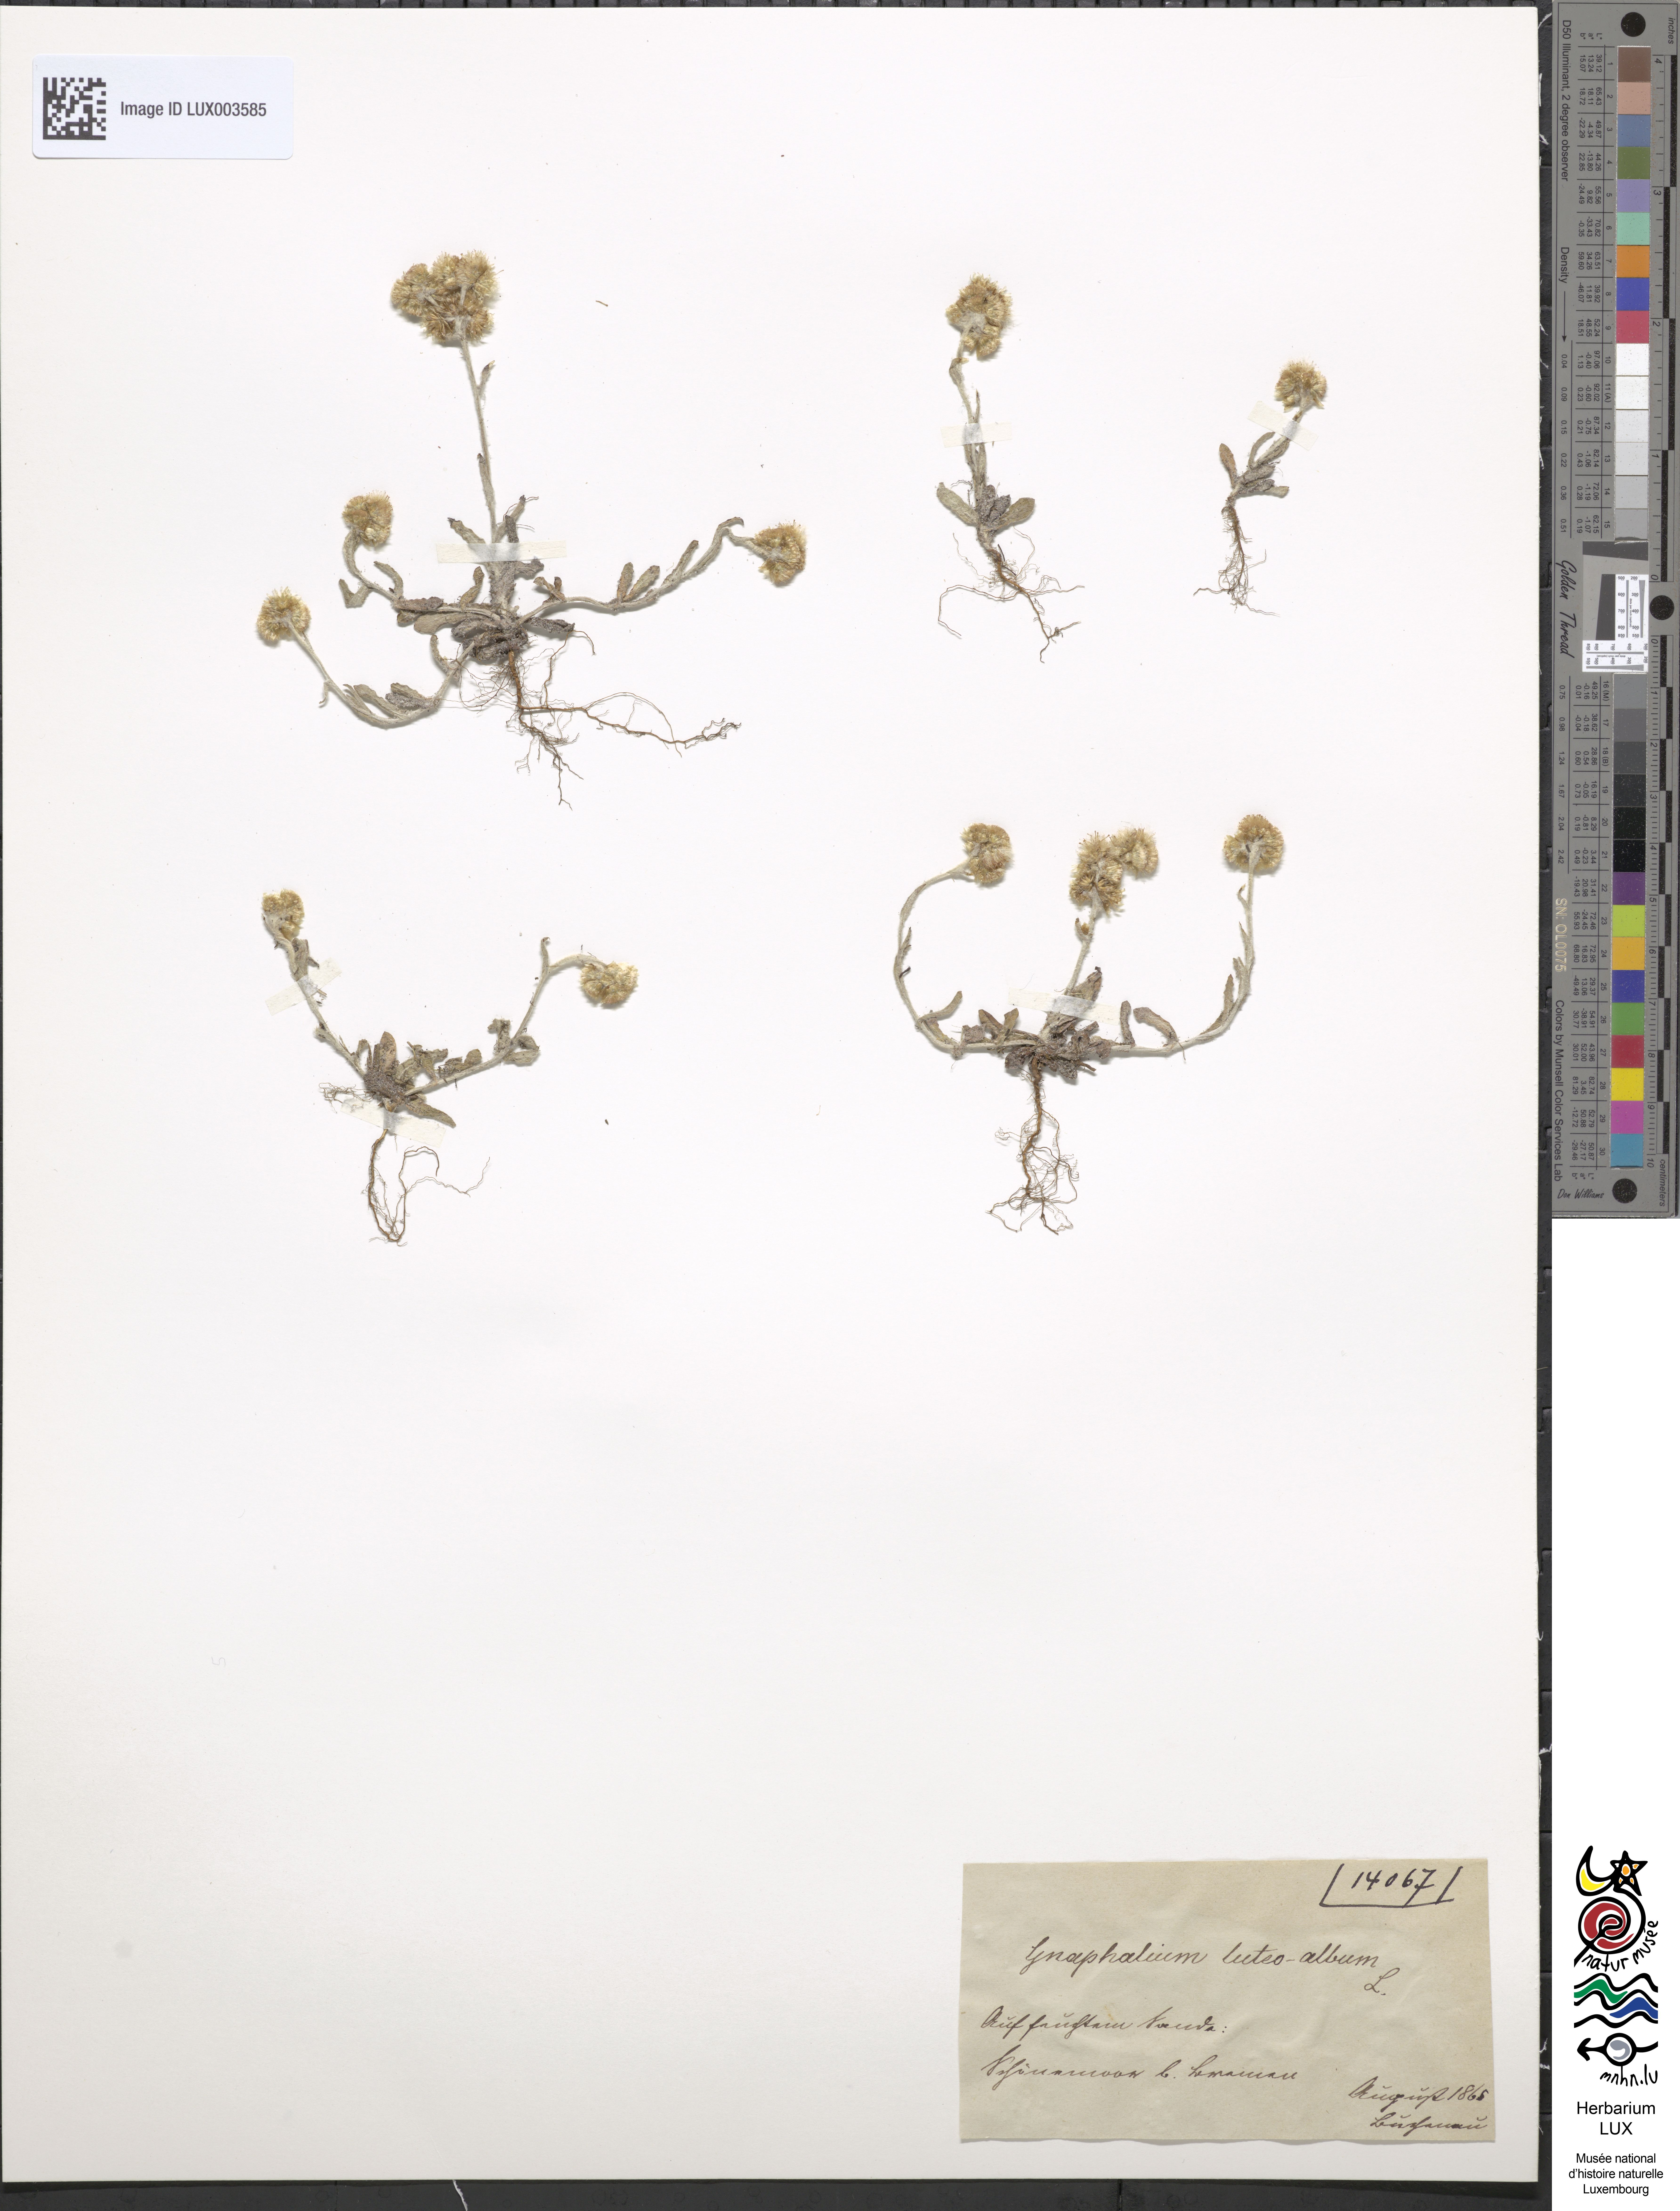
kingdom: Plantae
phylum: Tracheophyta
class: Magnoliopsida
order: Asterales
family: Asteraceae
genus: Helichrysum
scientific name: Helichrysum luteoalbum
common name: Daisy
